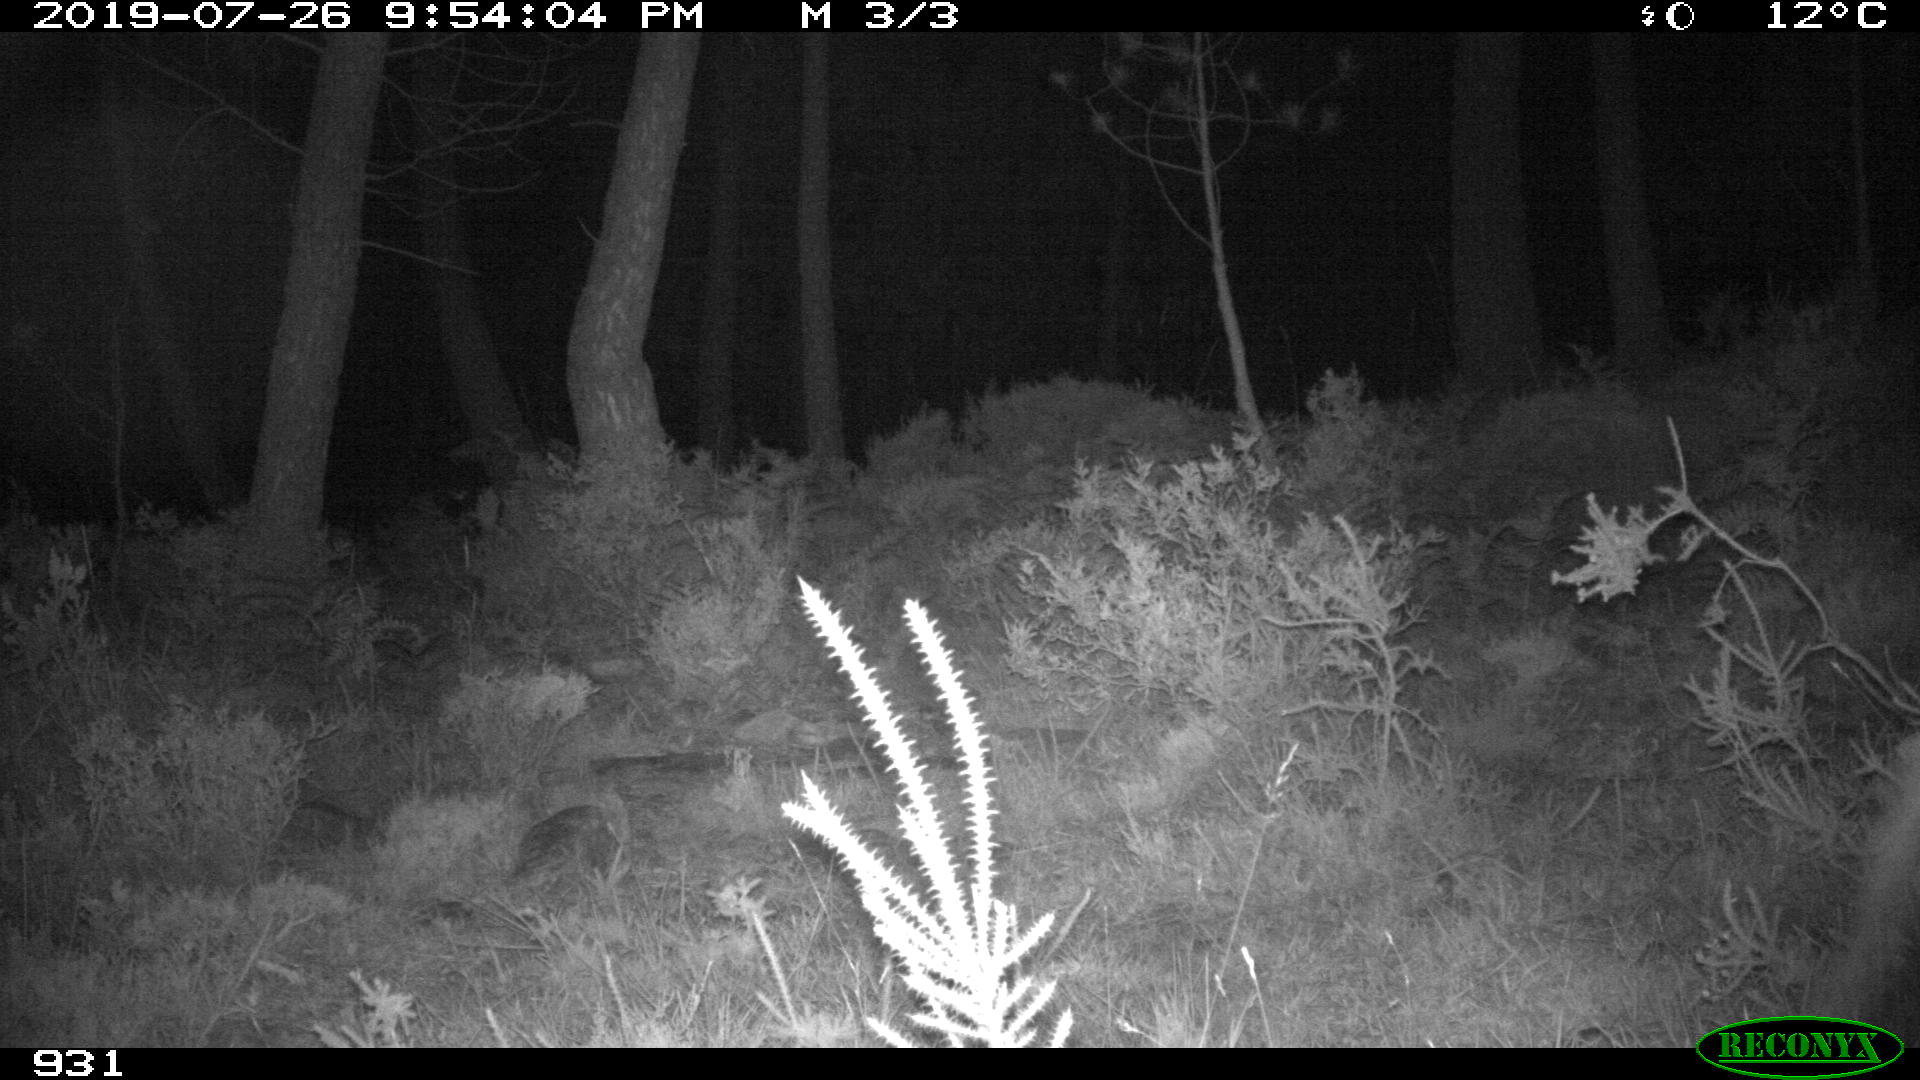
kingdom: Animalia
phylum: Chordata
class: Mammalia
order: Artiodactyla
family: Cervidae
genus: Capreolus
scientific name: Capreolus capreolus
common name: Western roe deer
